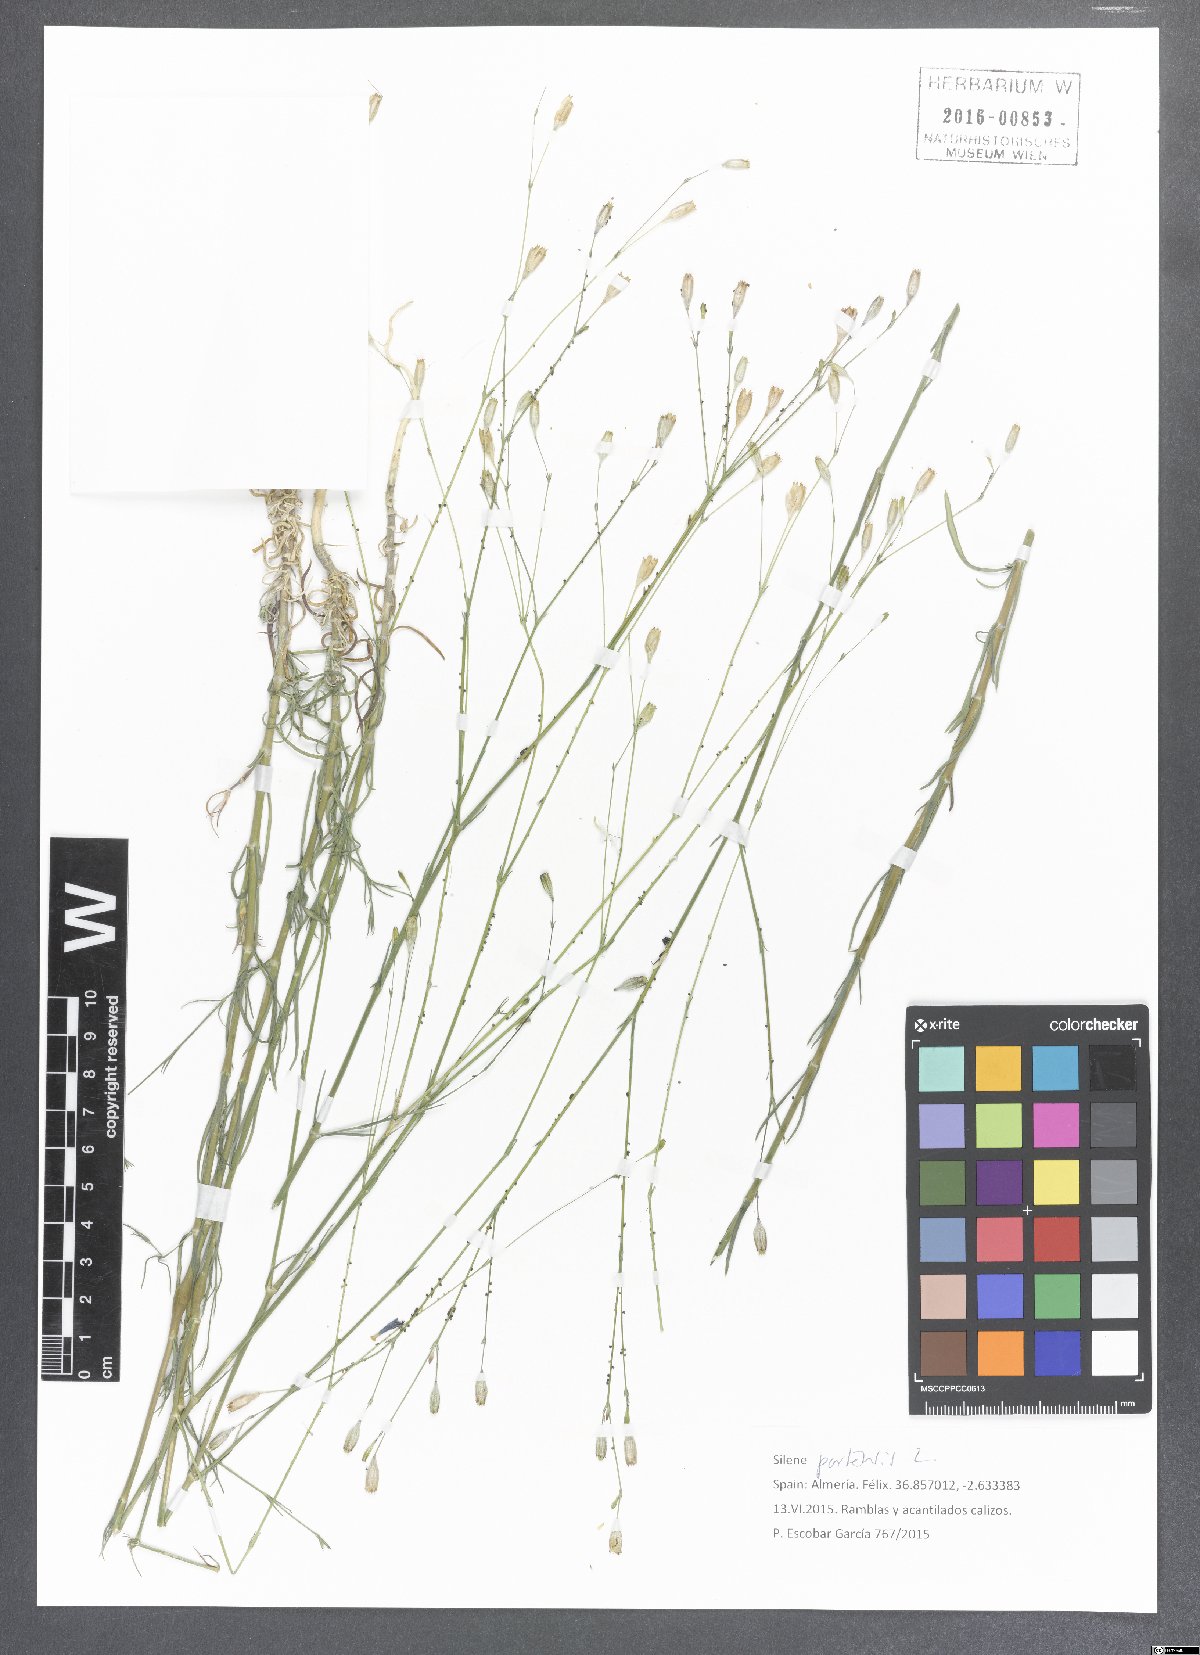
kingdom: Plantae
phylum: Tracheophyta
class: Magnoliopsida
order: Caryophyllales
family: Caryophyllaceae
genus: Silene
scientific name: Silene portensis
